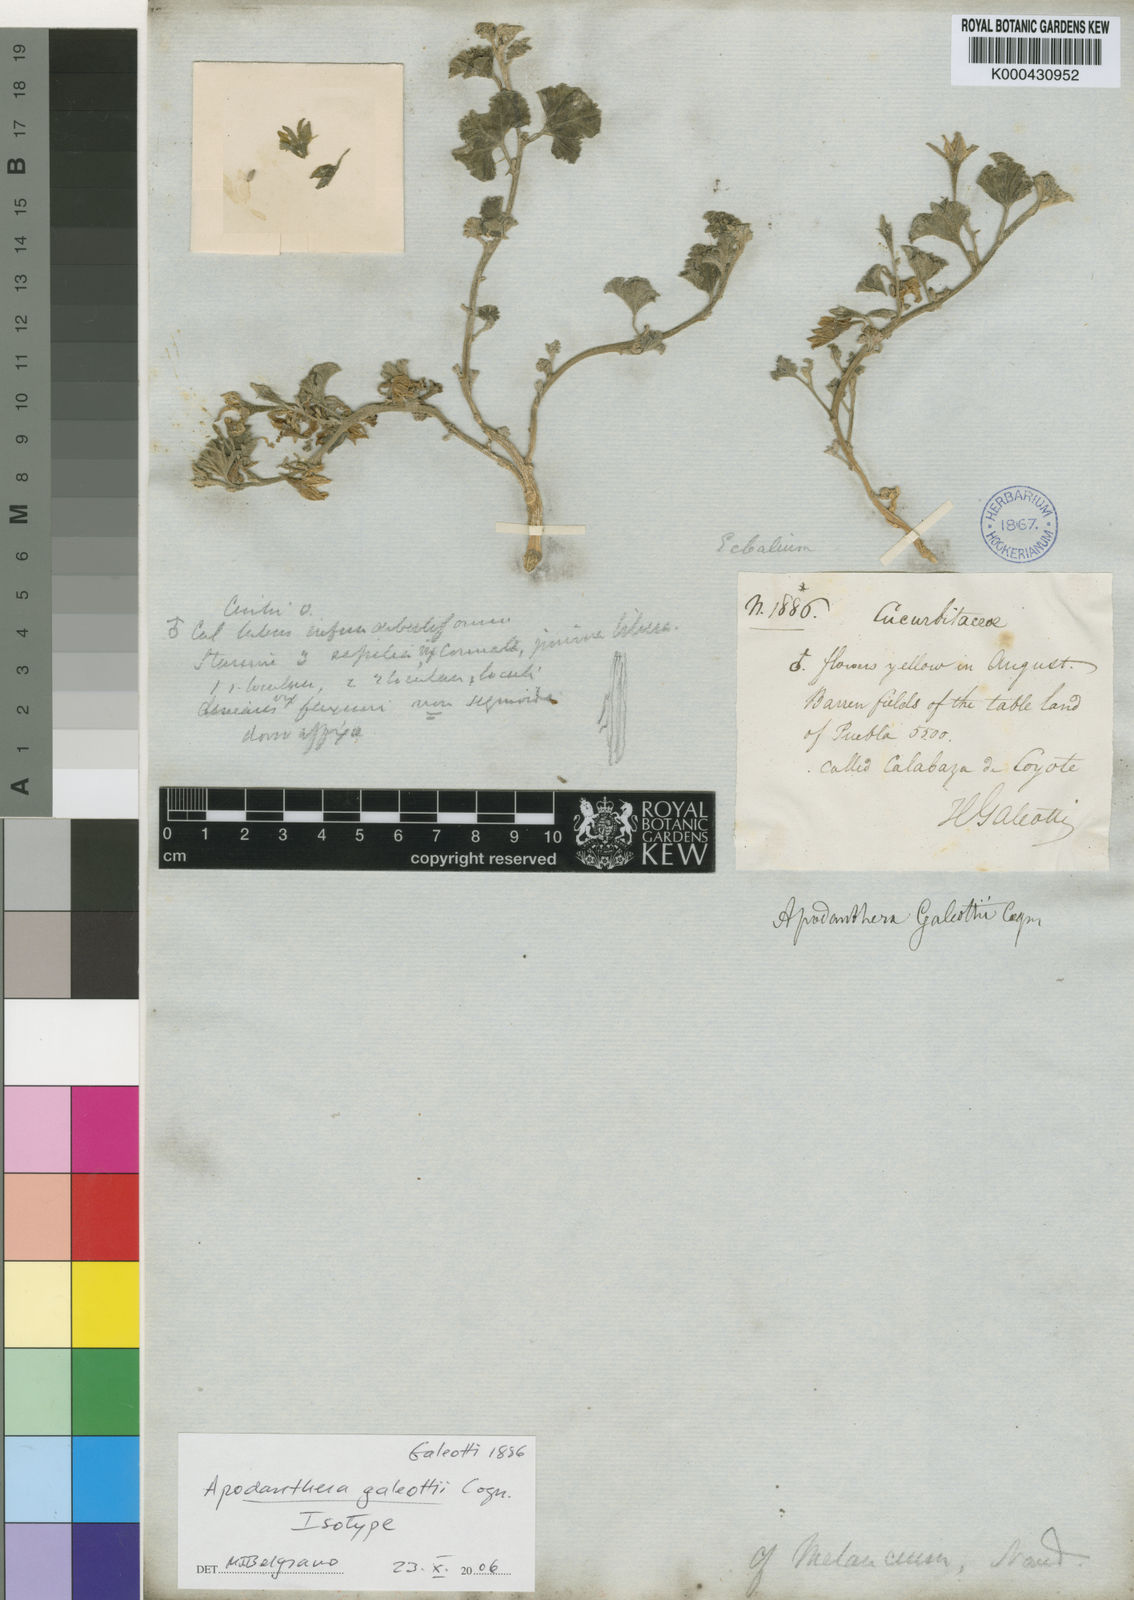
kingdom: Plantae
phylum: Tracheophyta
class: Magnoliopsida
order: Cucurbitales
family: Cucurbitaceae
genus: Apodanthera
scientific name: Apodanthera aspera
